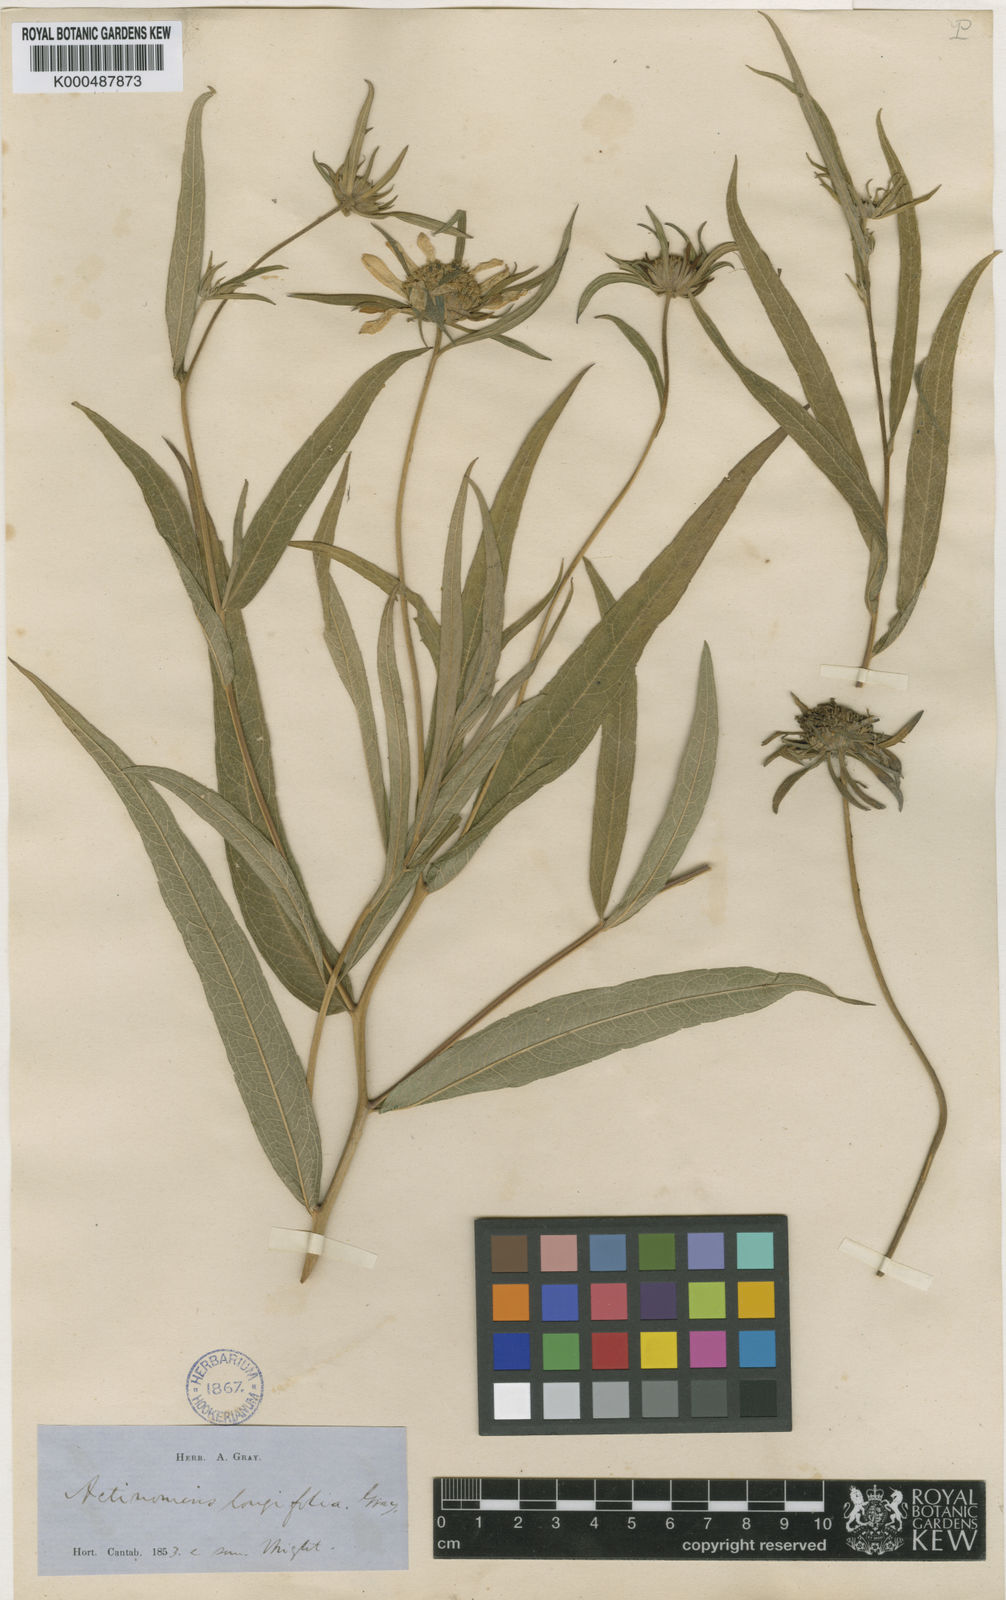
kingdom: Plantae
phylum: Tracheophyta
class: Magnoliopsida
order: Asterales
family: Asteraceae
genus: Verbesina
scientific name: Verbesina longifolia
